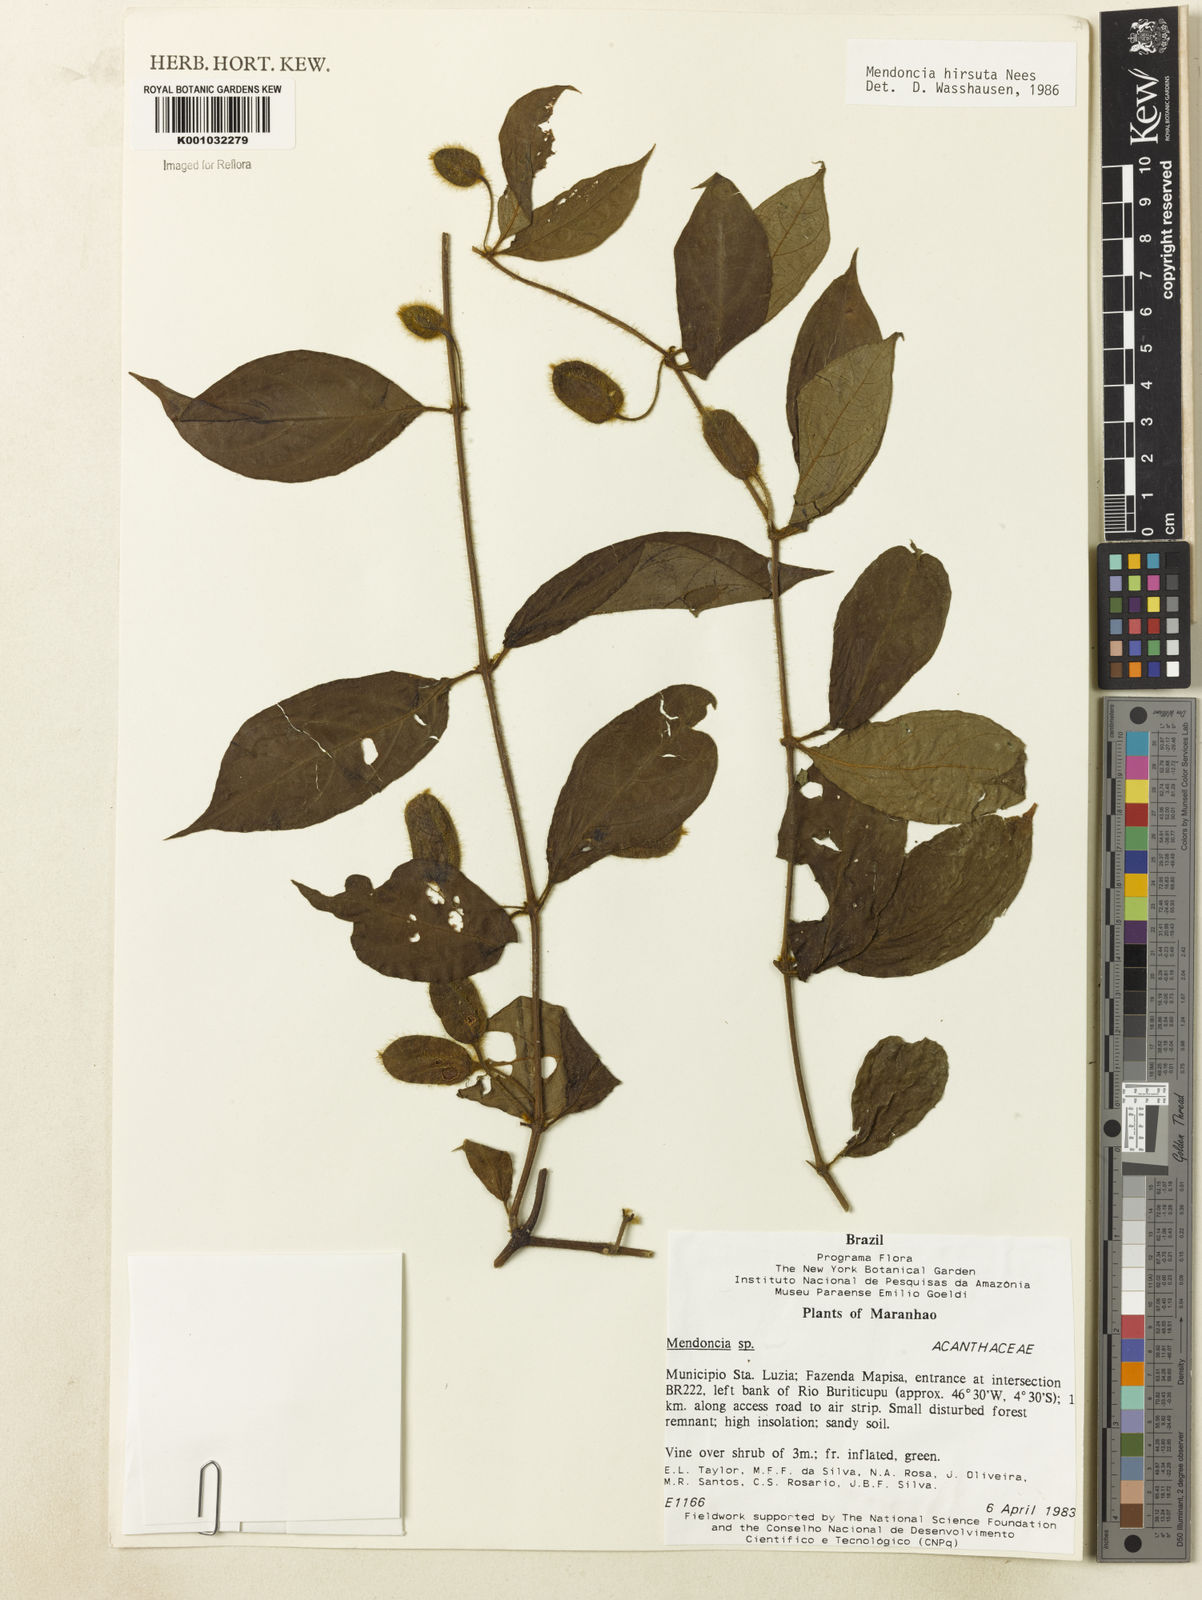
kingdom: Plantae
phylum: Tracheophyta
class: Magnoliopsida
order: Lamiales
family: Acanthaceae
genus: Mendoncia
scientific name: Mendoncia
